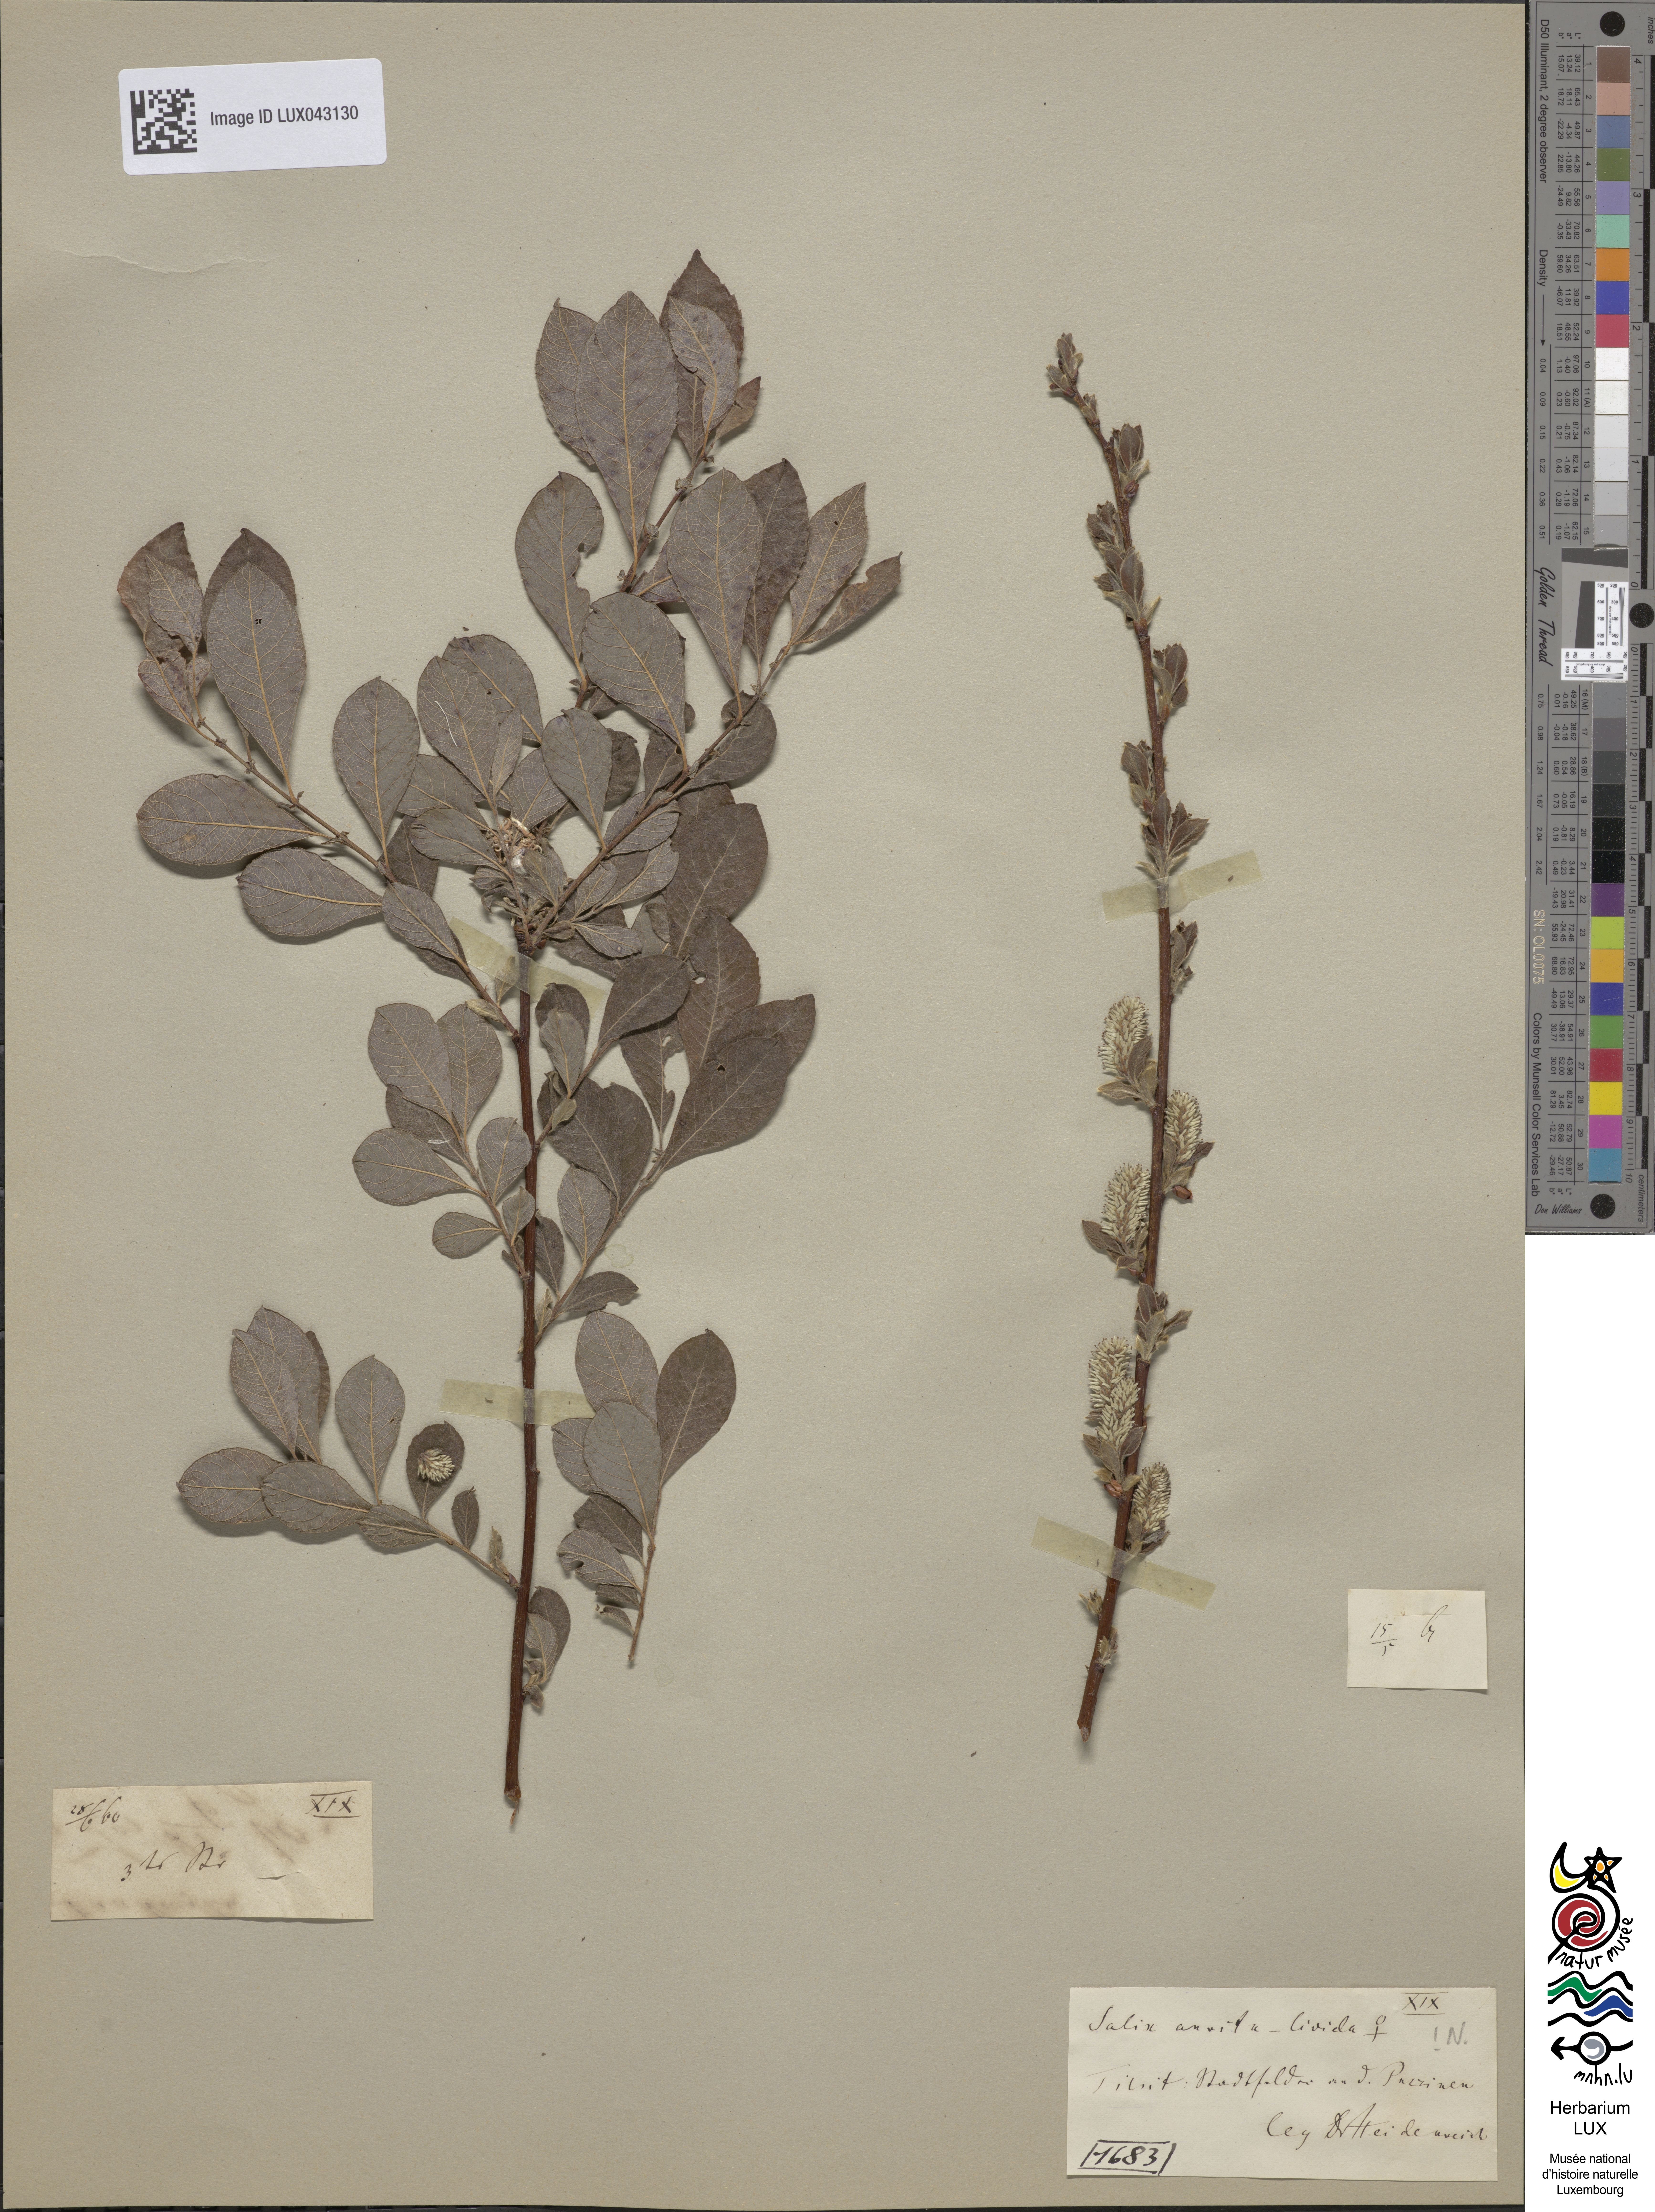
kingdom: Plantae
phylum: Tracheophyta
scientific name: Tracheophyta
